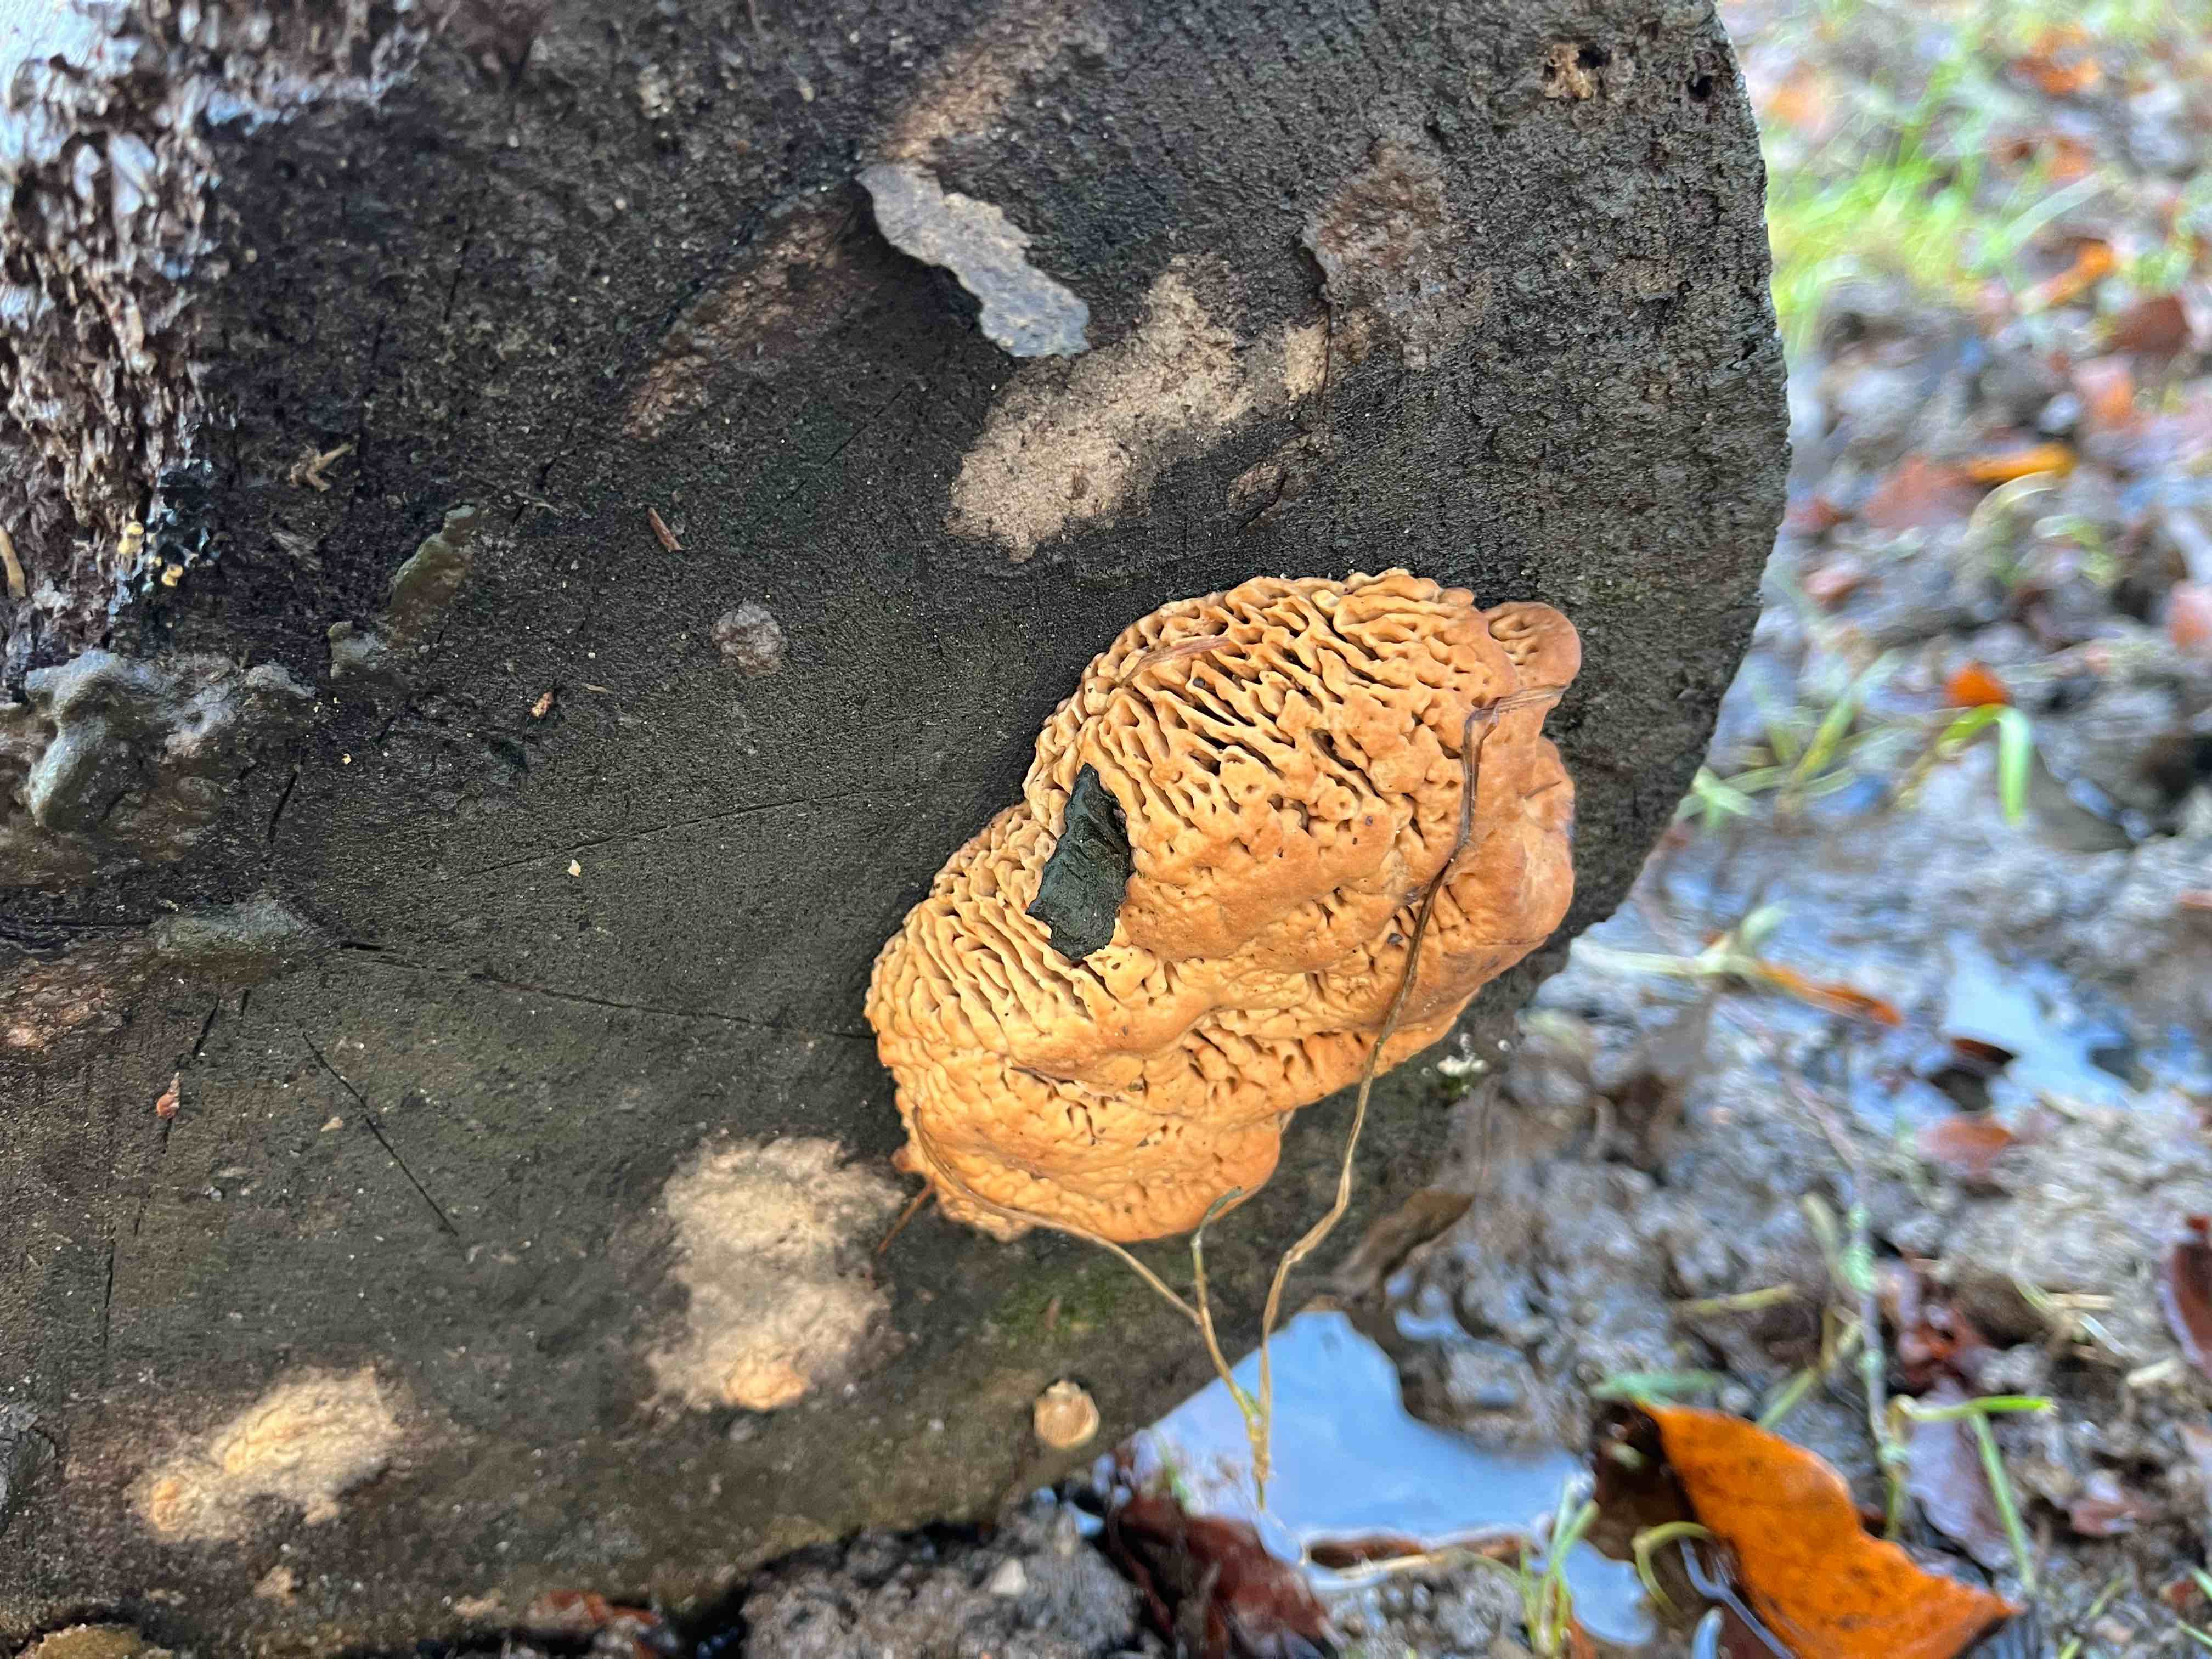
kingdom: Fungi
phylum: Basidiomycota
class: Agaricomycetes
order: Polyporales
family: Fomitopsidaceae
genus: Daedalea
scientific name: Daedalea quercina
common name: ege-labyrintsvamp
